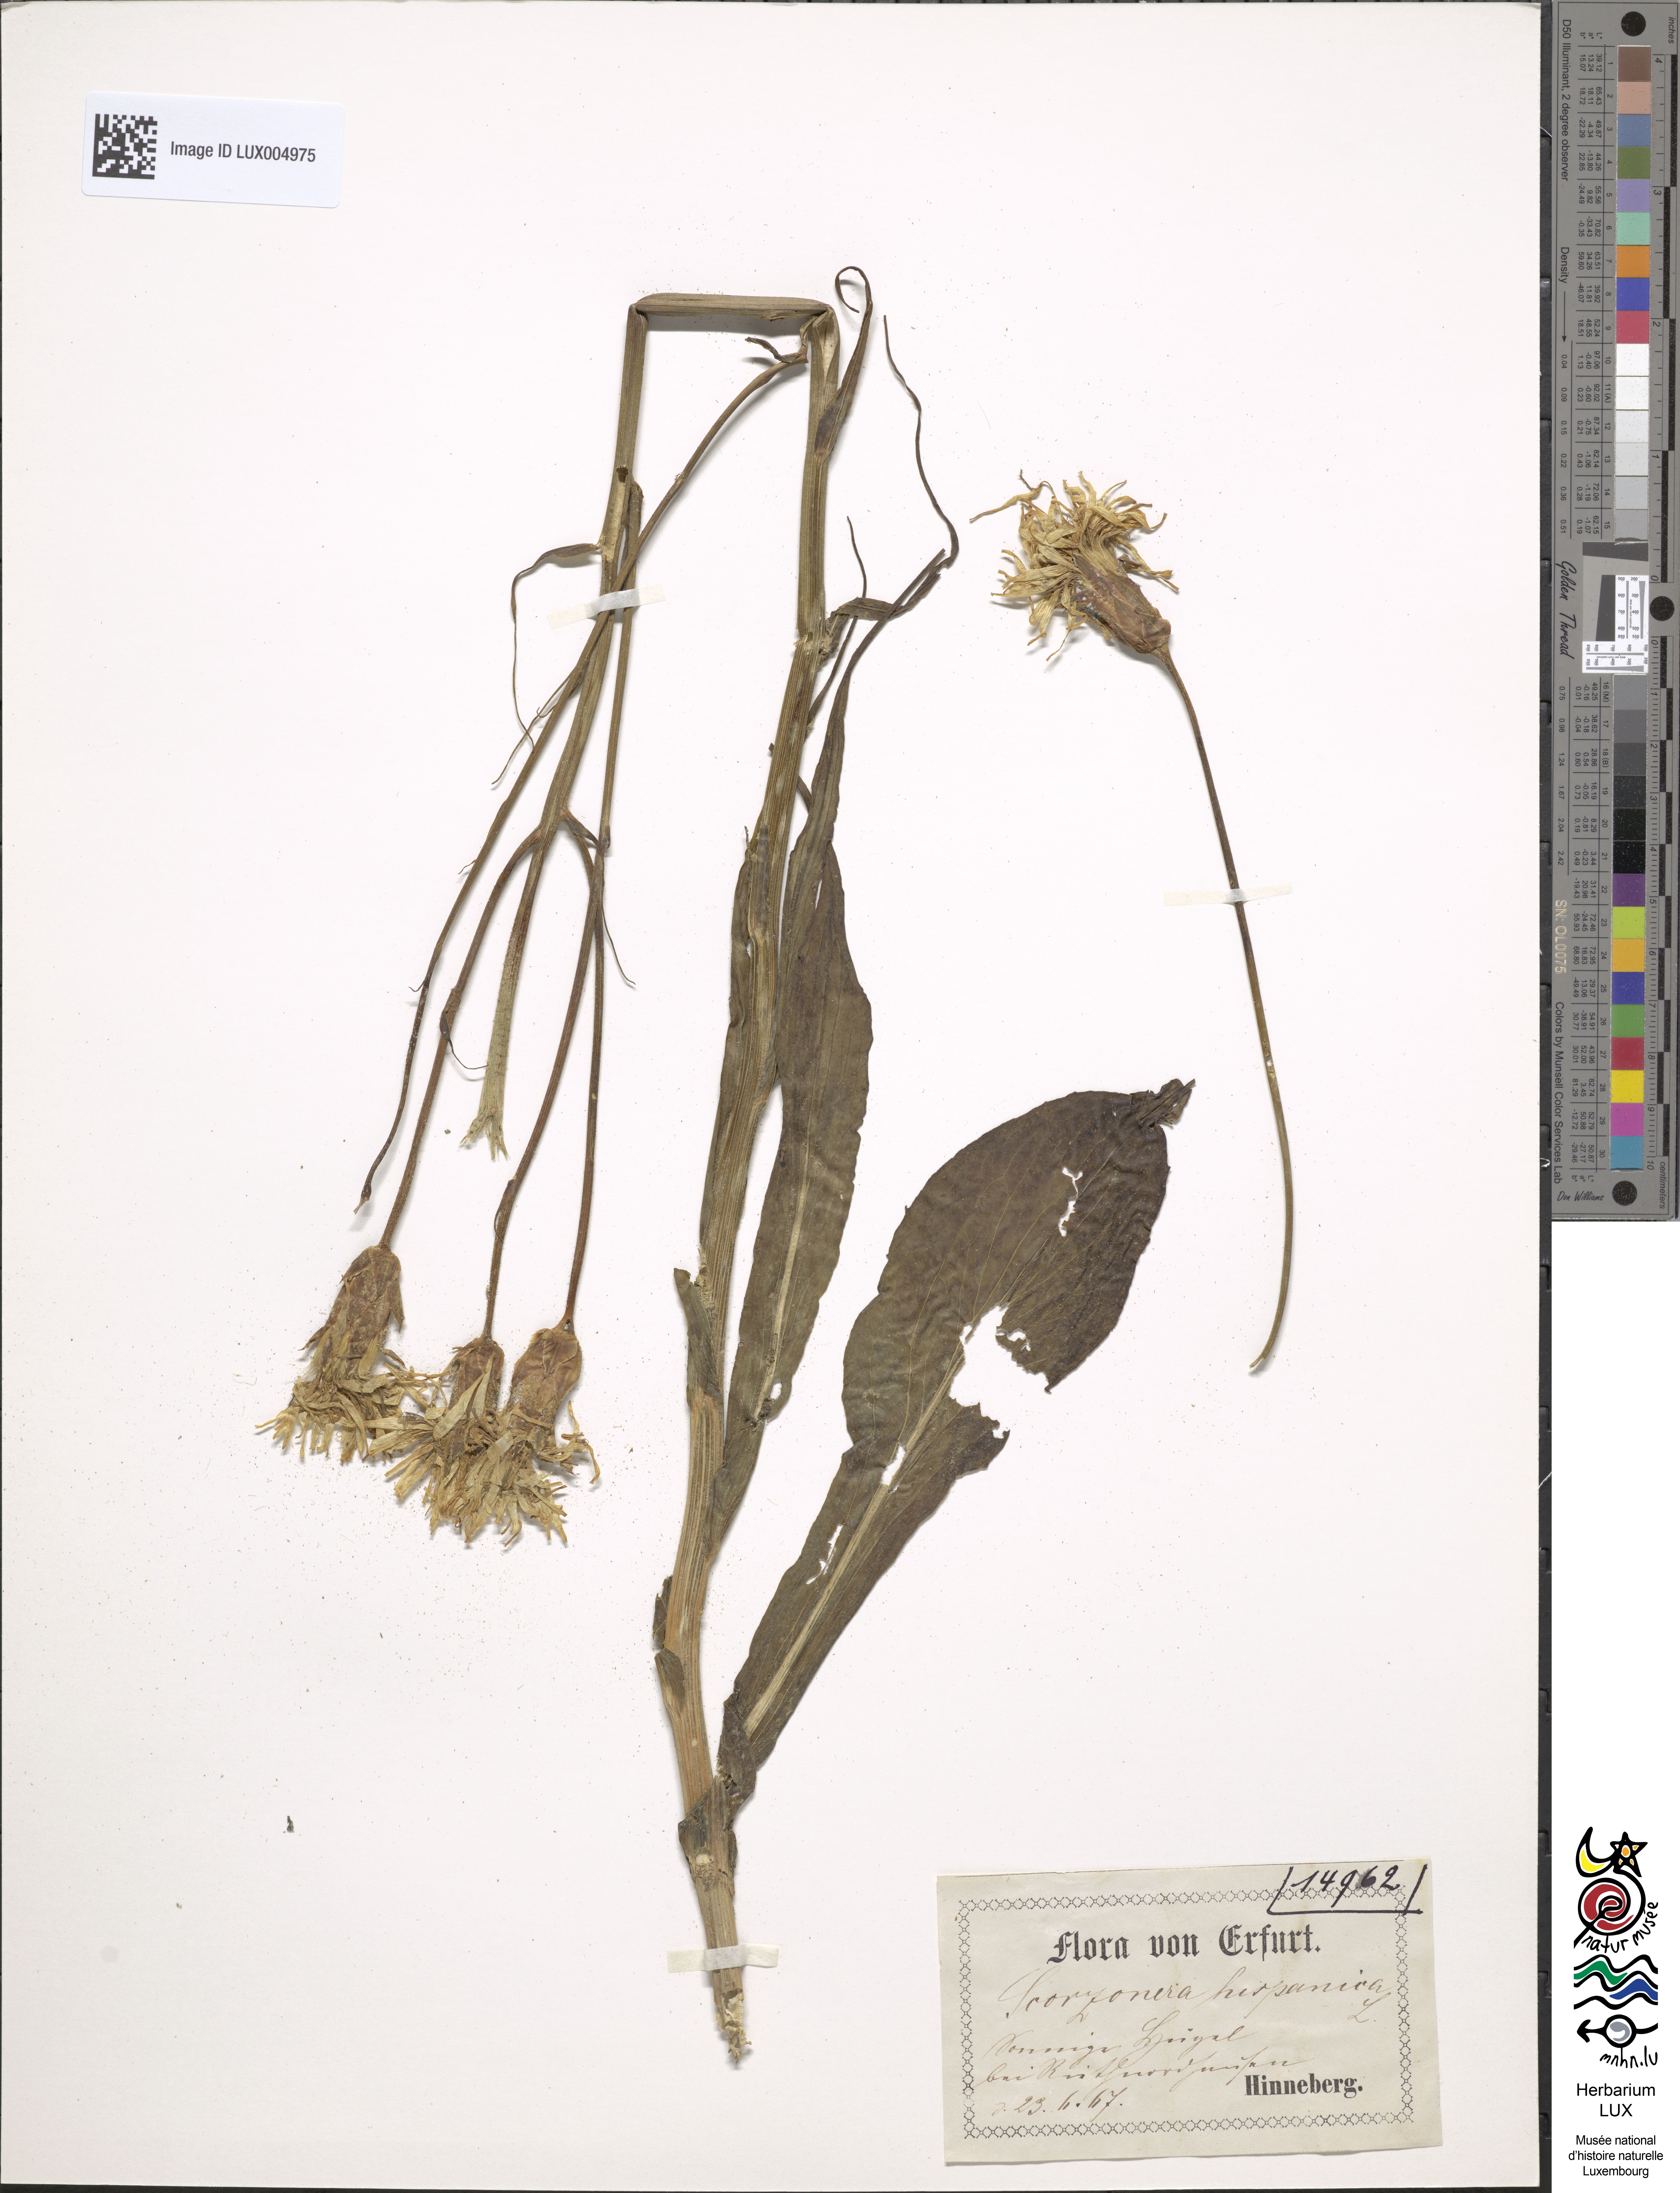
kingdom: Plantae
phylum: Tracheophyta
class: Magnoliopsida
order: Asterales
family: Asteraceae
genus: Pseudopodospermum
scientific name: Pseudopodospermum hispanicum
